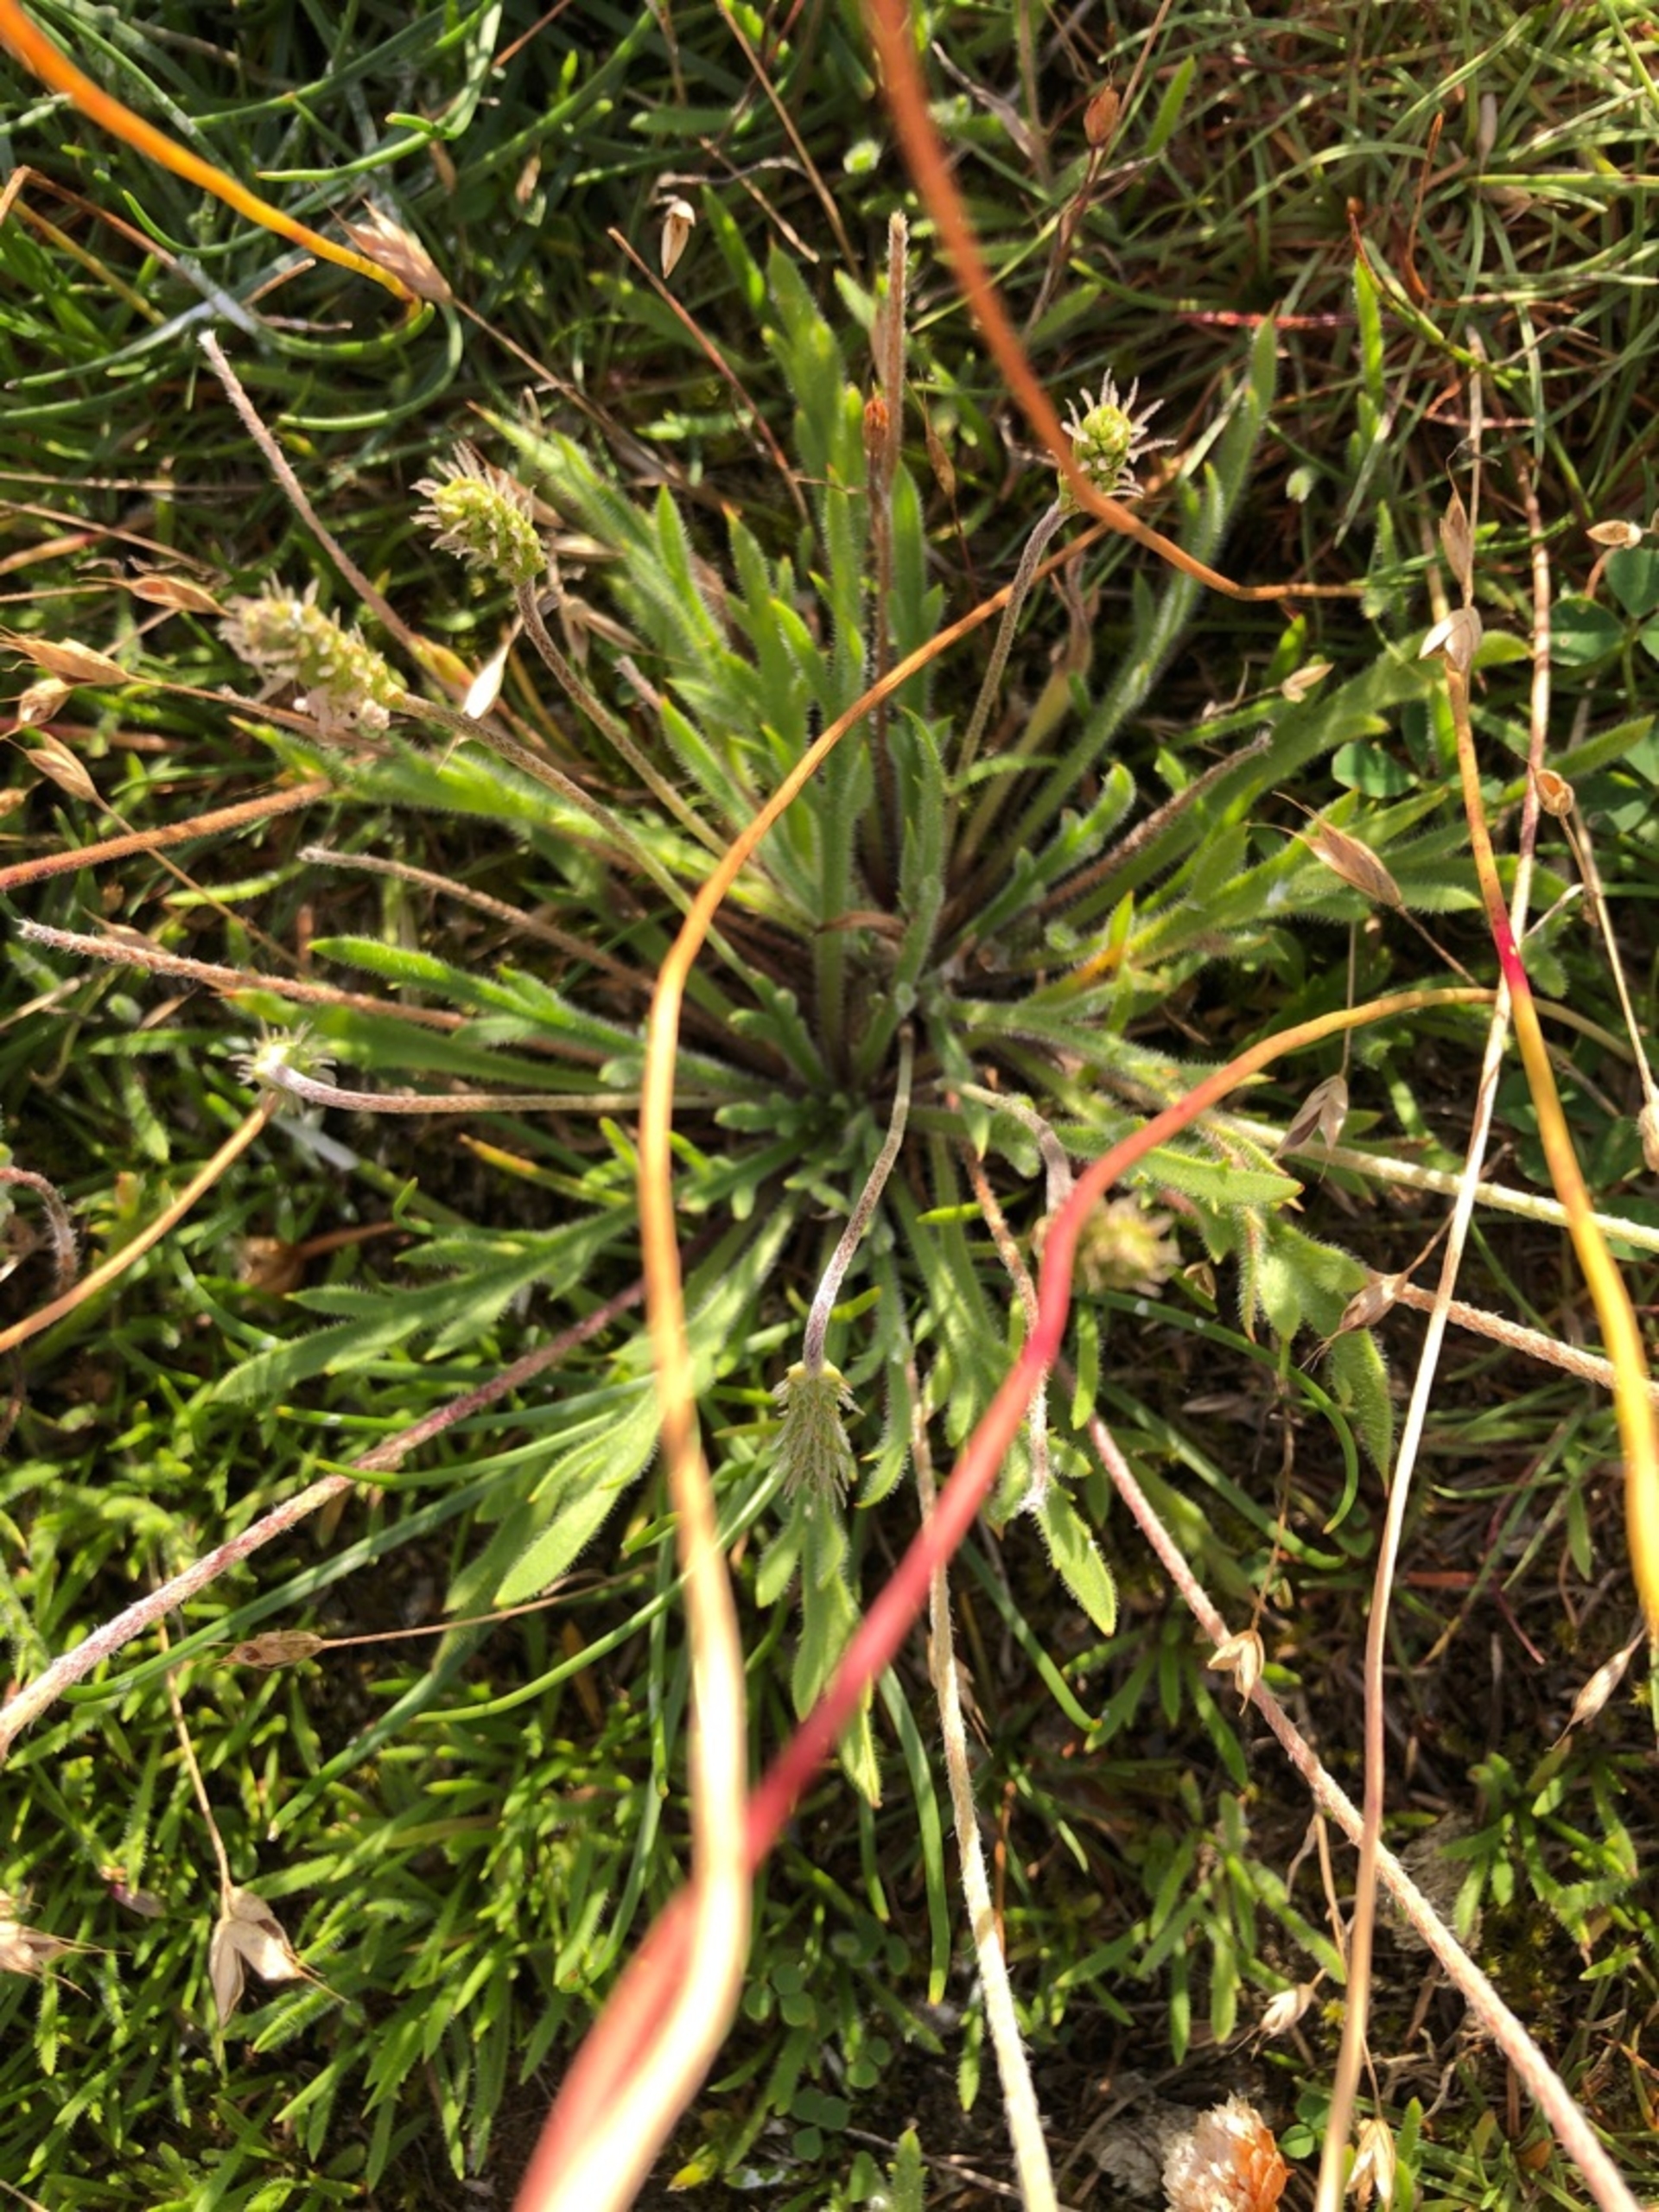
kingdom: Plantae
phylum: Tracheophyta
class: Magnoliopsida
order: Lamiales
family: Plantaginaceae
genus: Plantago
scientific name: Plantago coronopus
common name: Fliget vejbred
